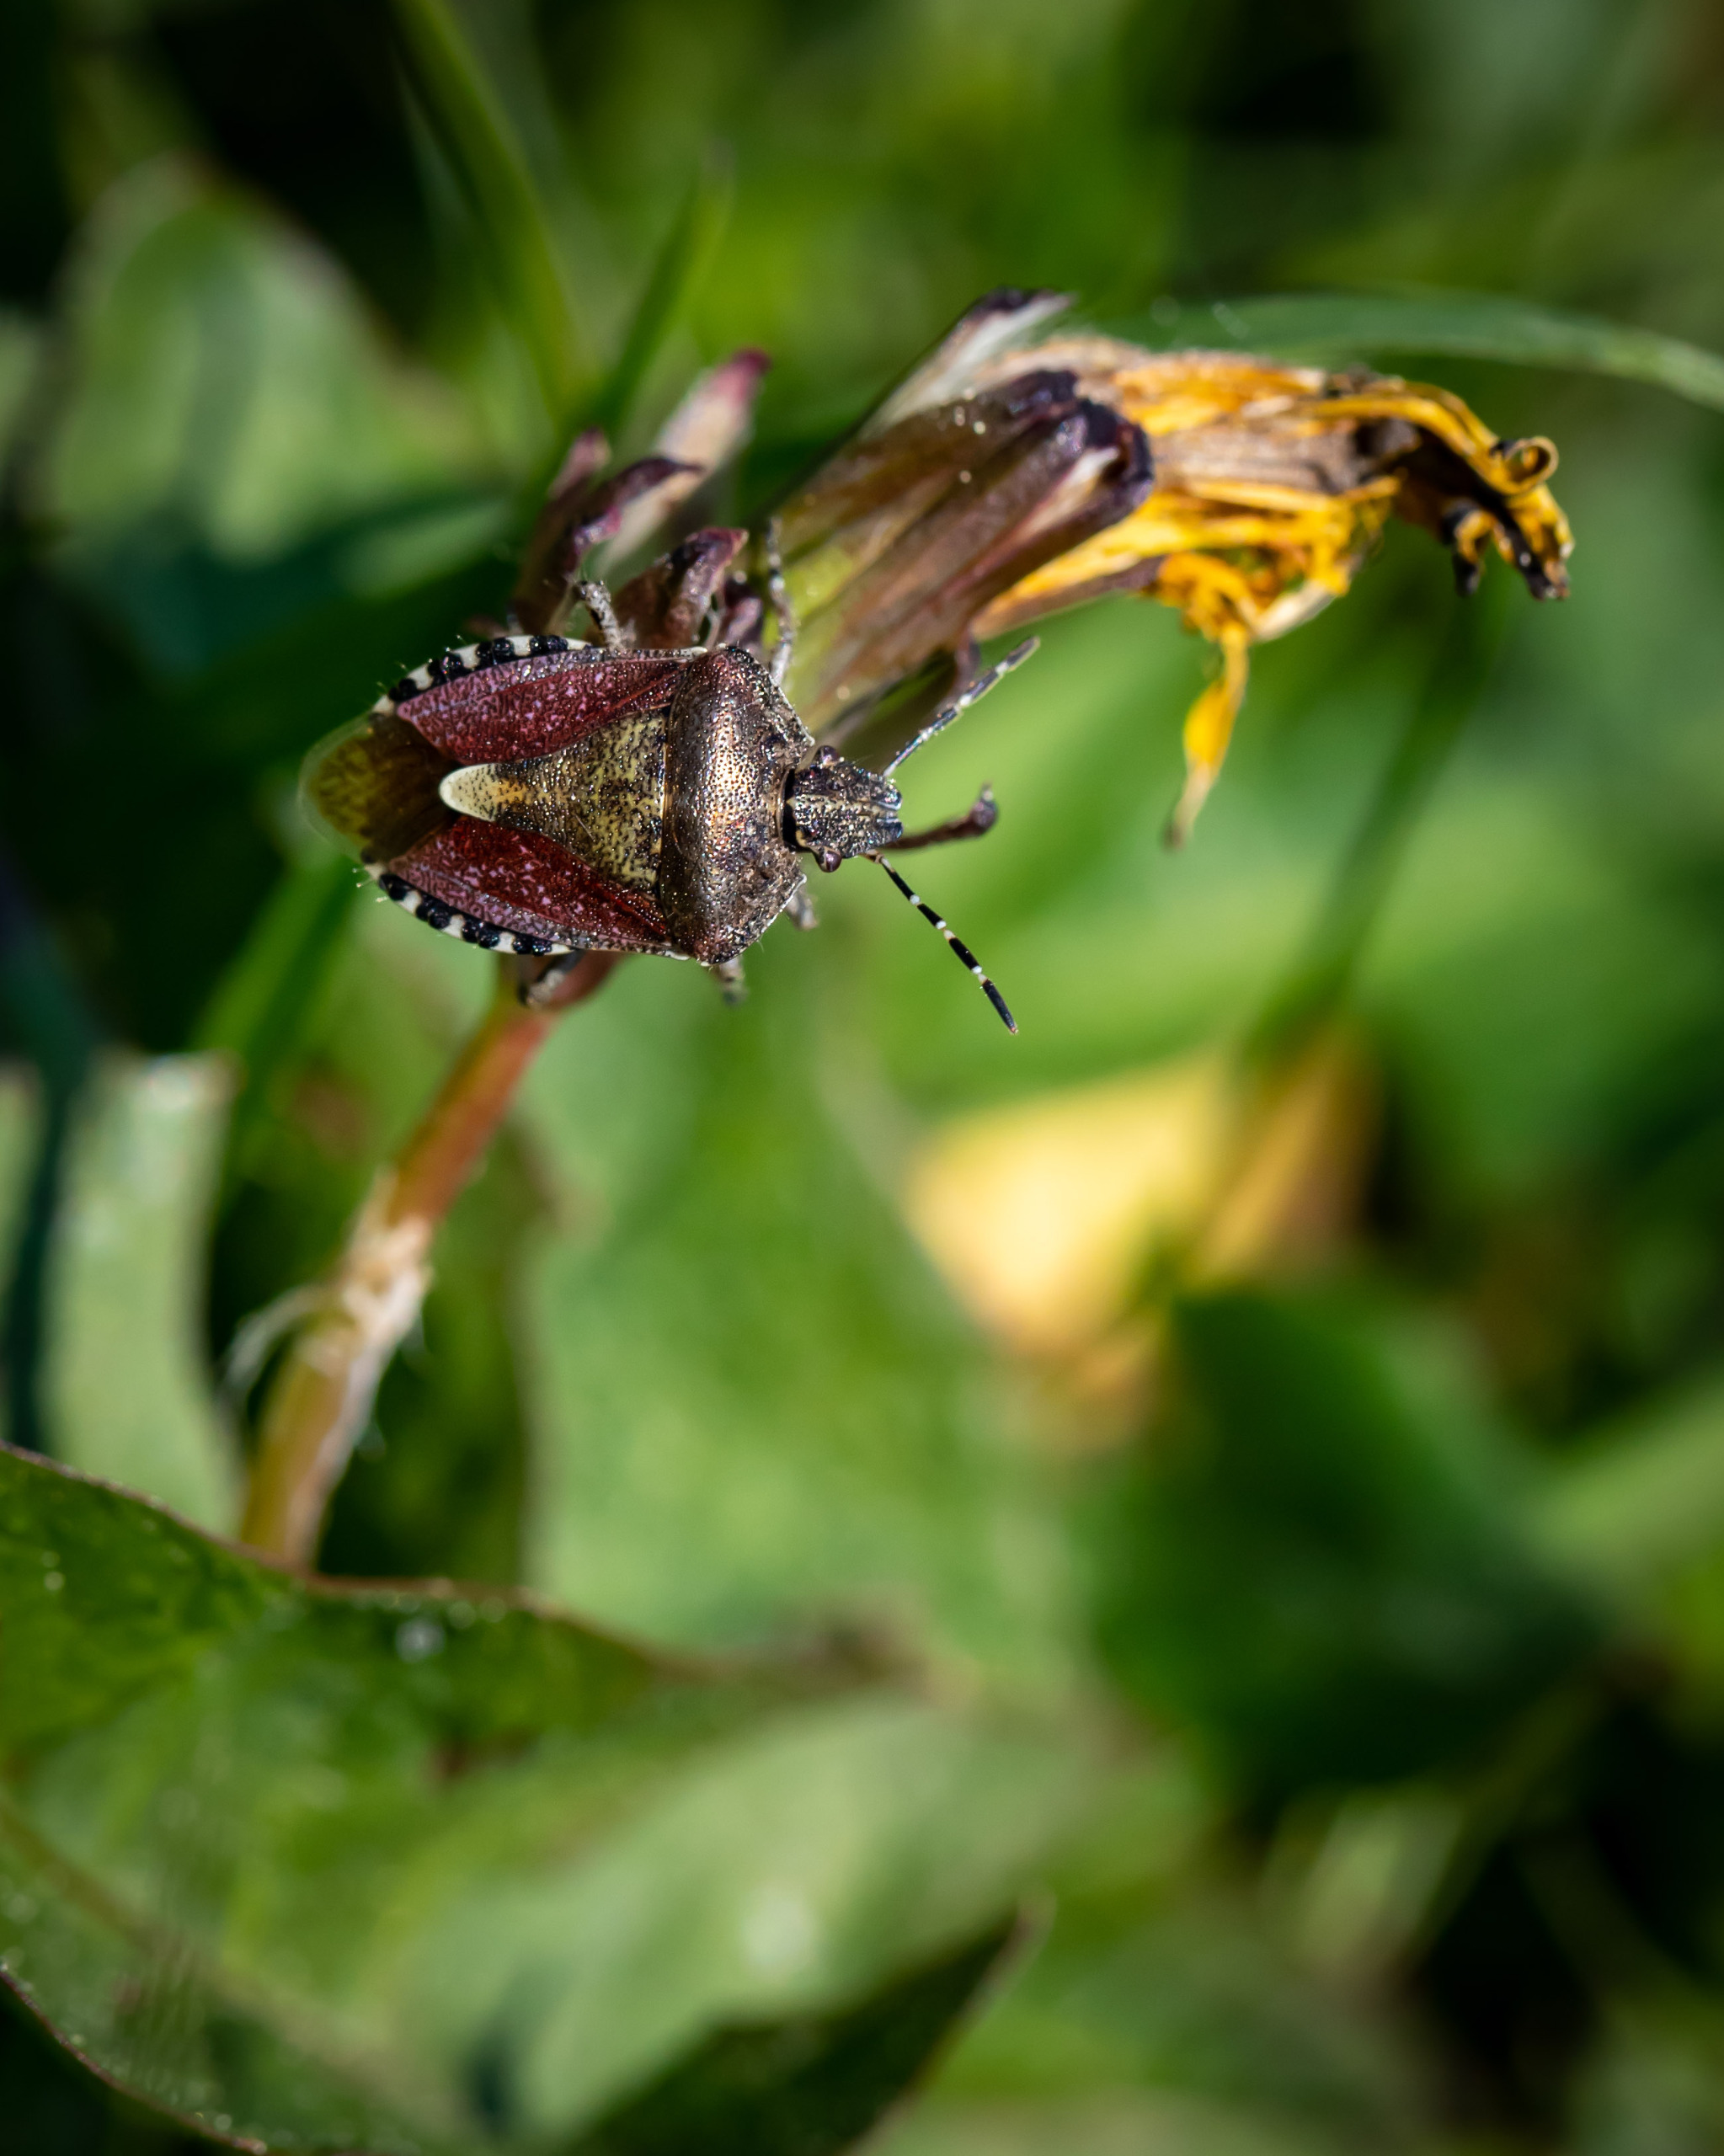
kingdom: Animalia
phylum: Arthropoda
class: Insecta
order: Hemiptera
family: Pentatomidae
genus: Dolycoris
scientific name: Dolycoris baccarum
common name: Almindelig bærtæge
